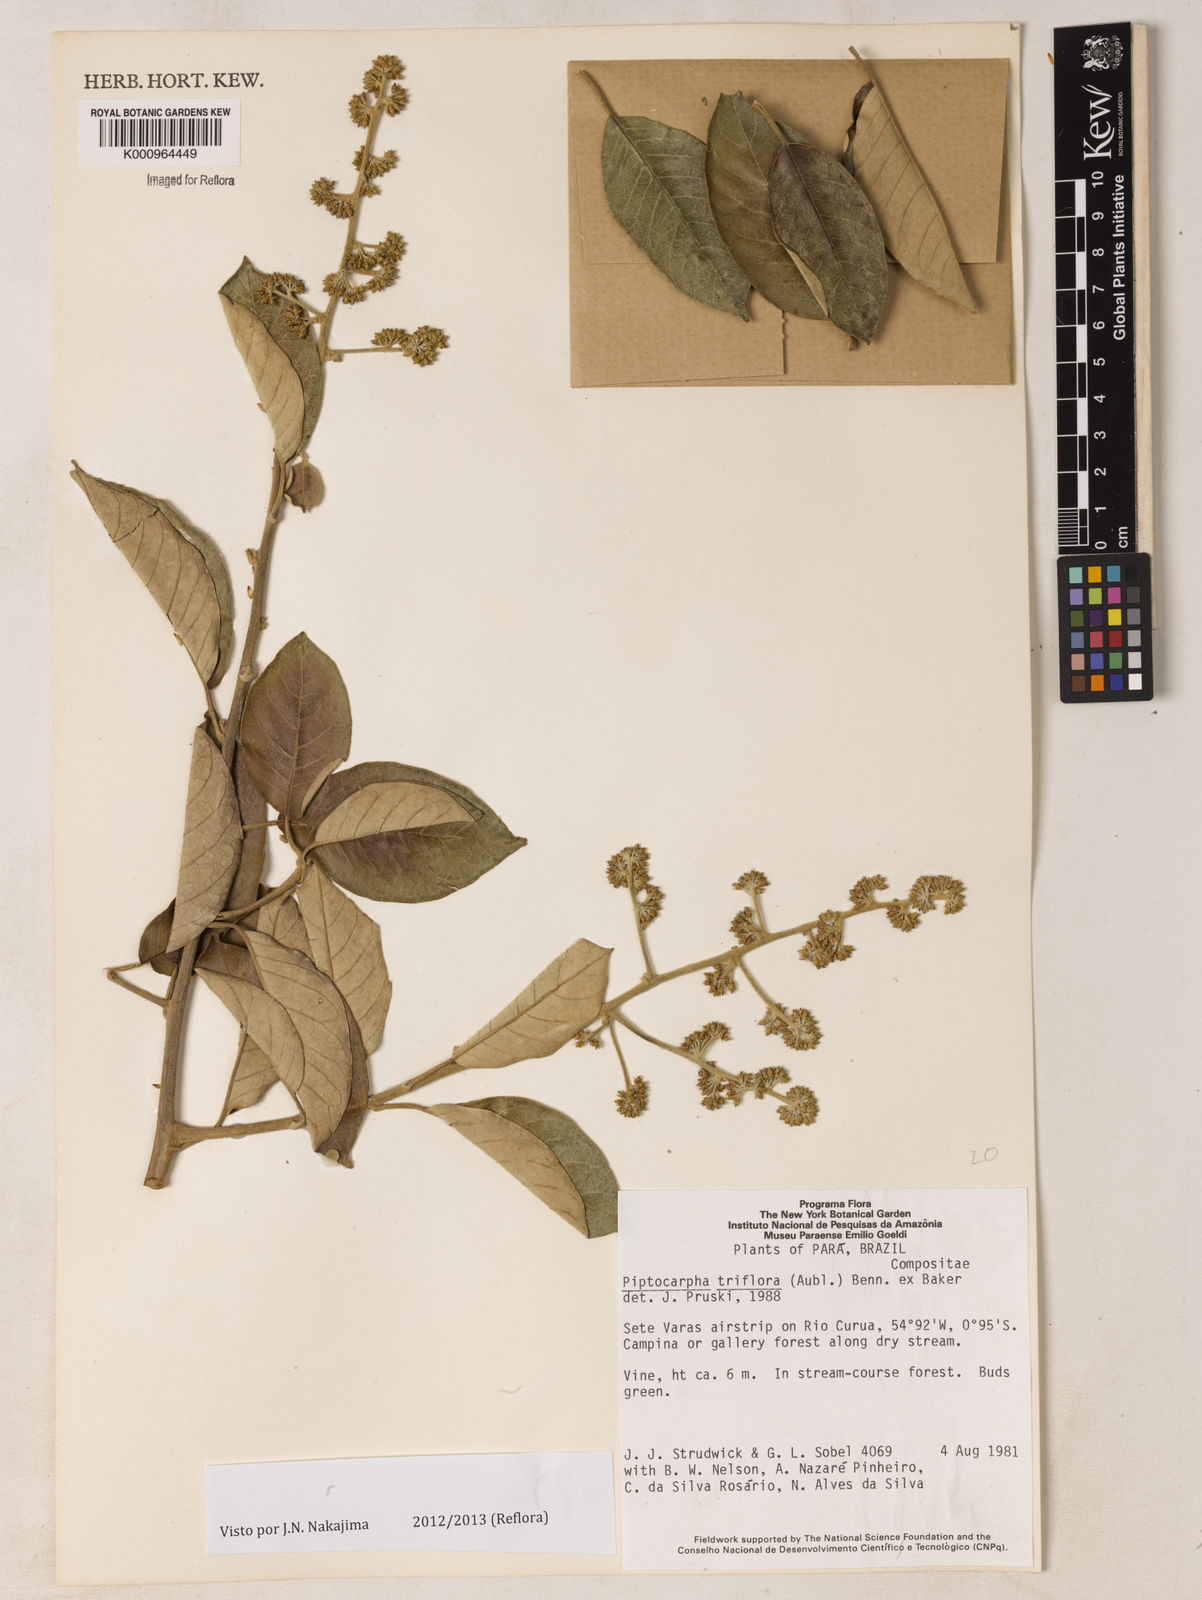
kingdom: Plantae
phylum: Tracheophyta
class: Magnoliopsida
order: Asterales
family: Asteraceae
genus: Piptocarpha
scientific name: Piptocarpha triflora
